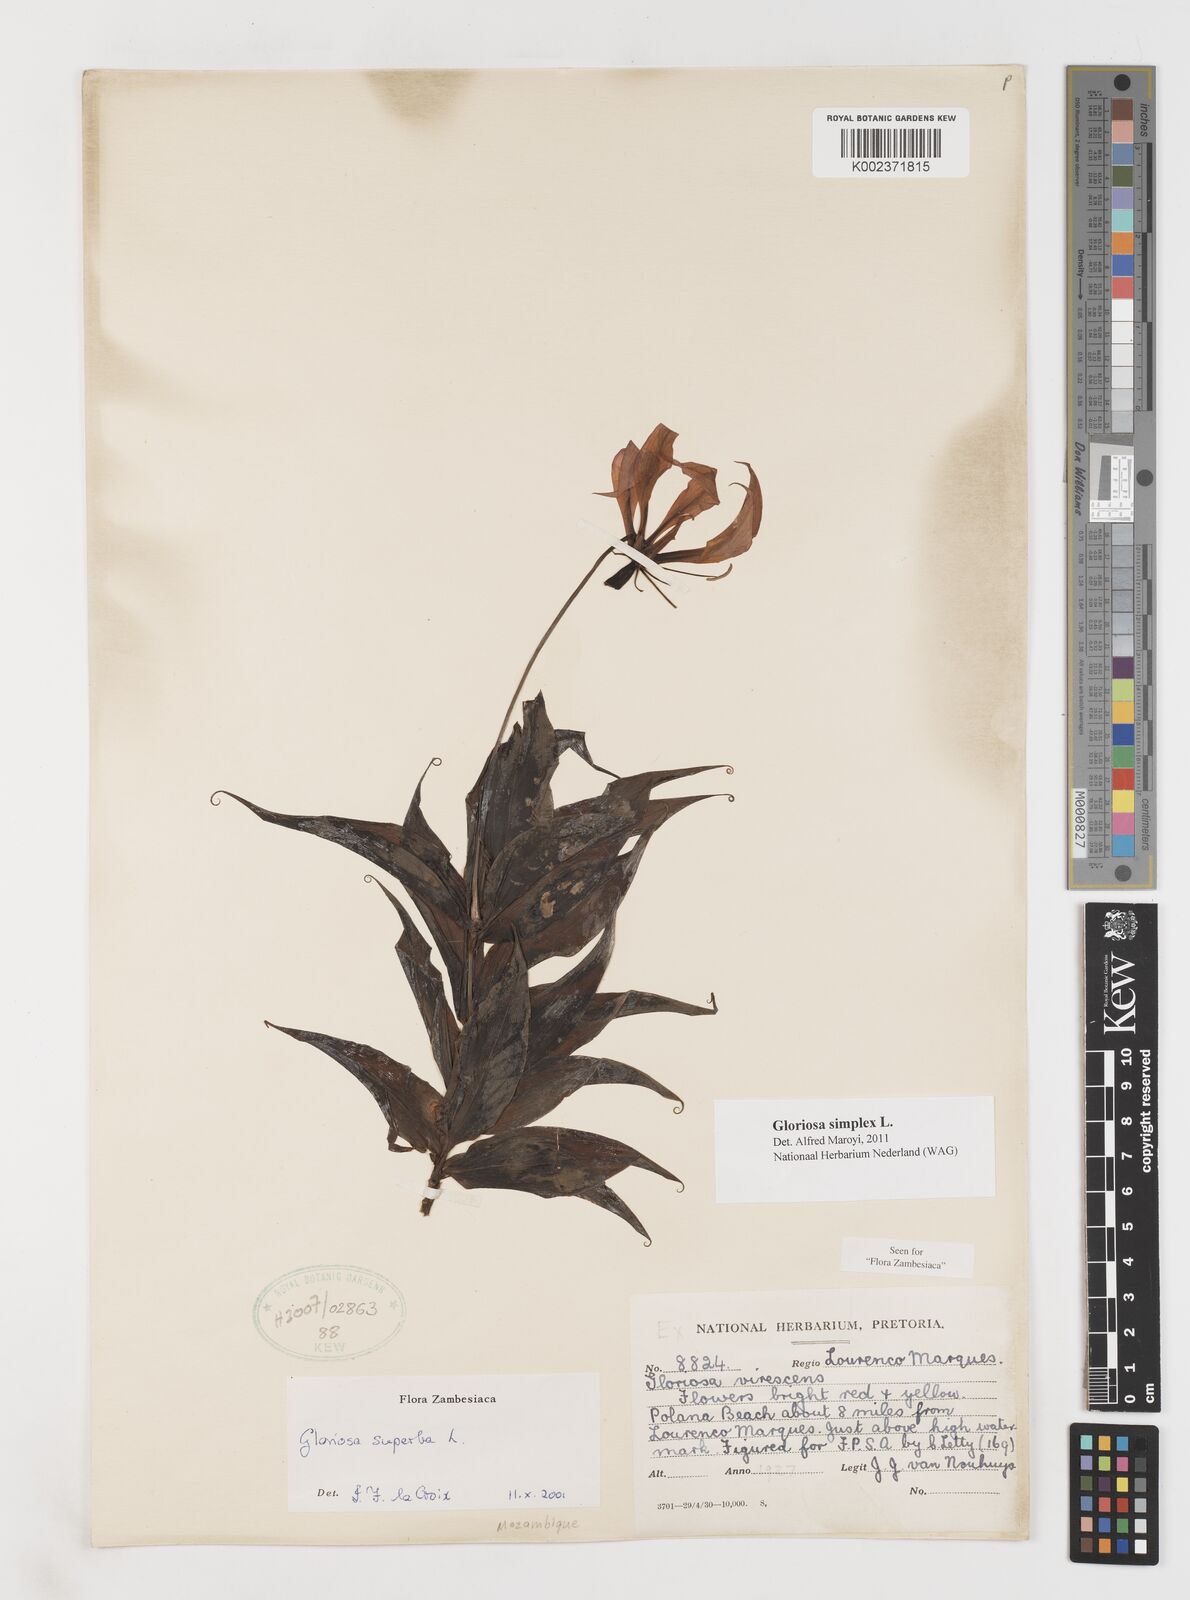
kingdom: Plantae
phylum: Tracheophyta
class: Liliopsida
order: Liliales
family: Colchicaceae
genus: Gloriosa
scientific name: Gloriosa simplex
